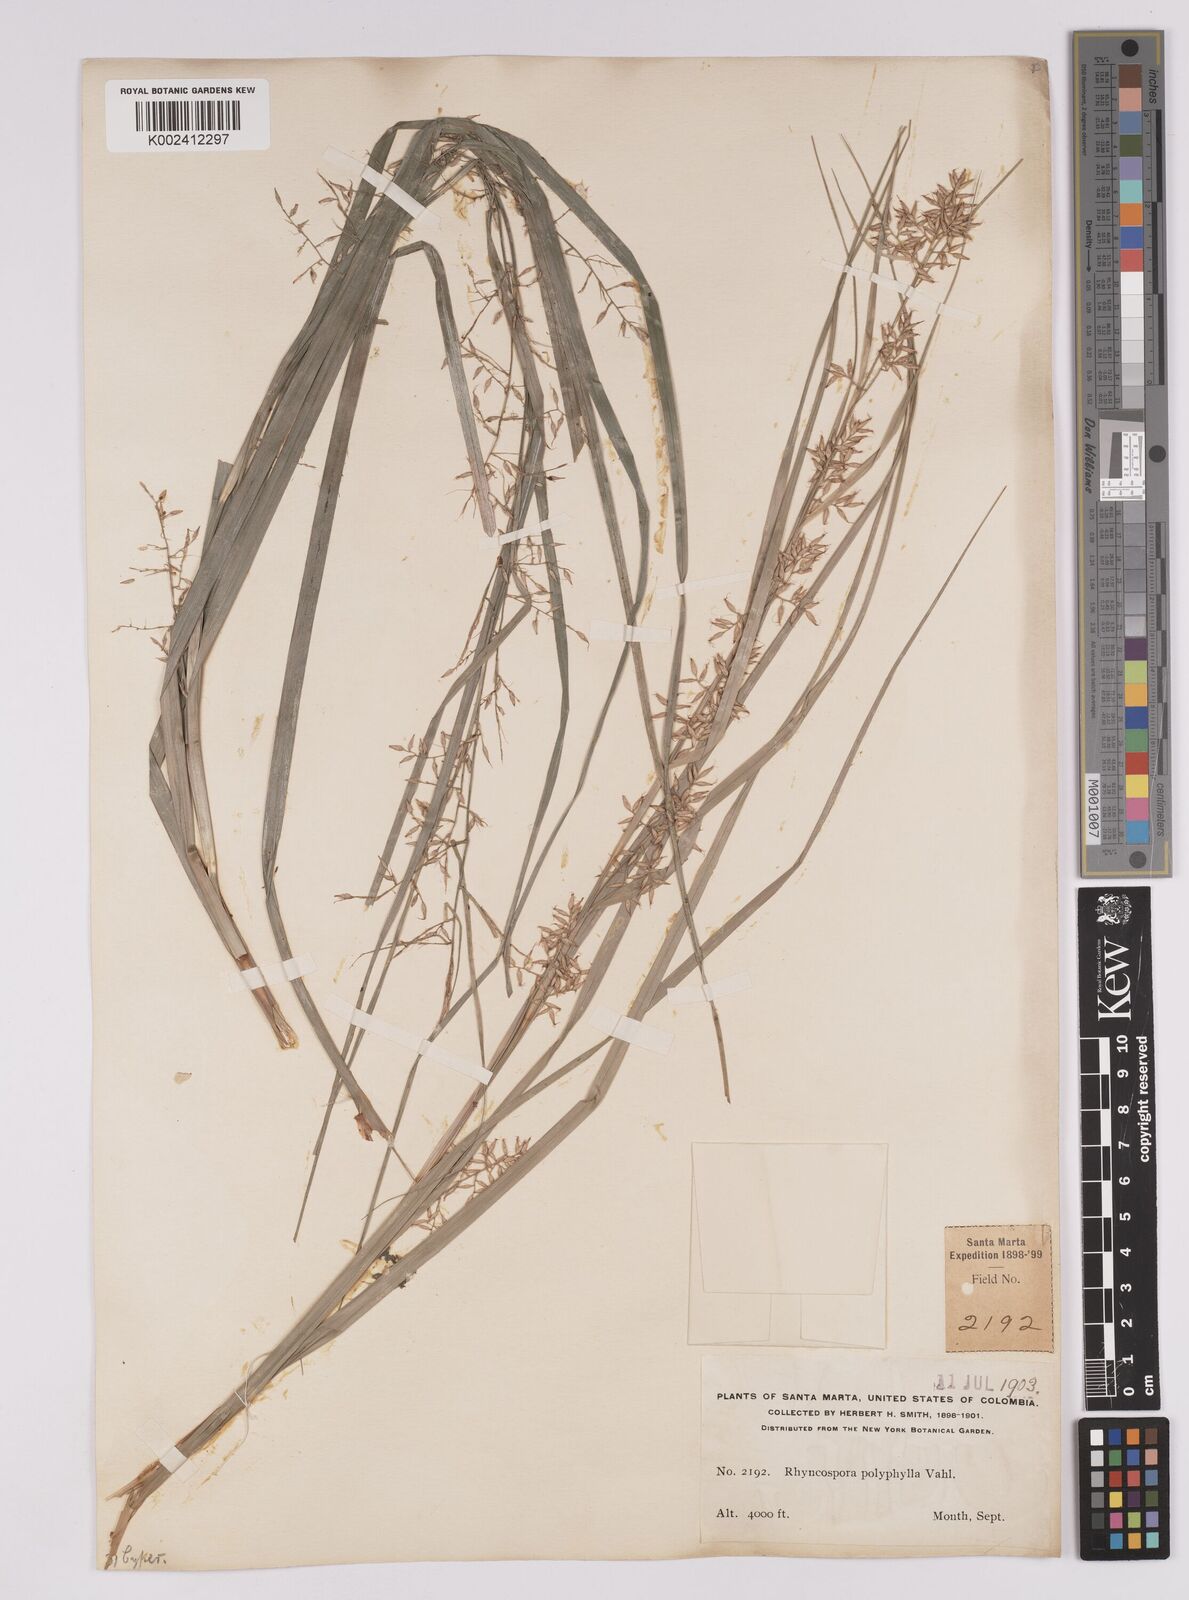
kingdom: Plantae
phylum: Tracheophyta
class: Liliopsida
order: Poales
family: Cyperaceae
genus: Rhynchospora
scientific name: Rhynchospora polyphylla
